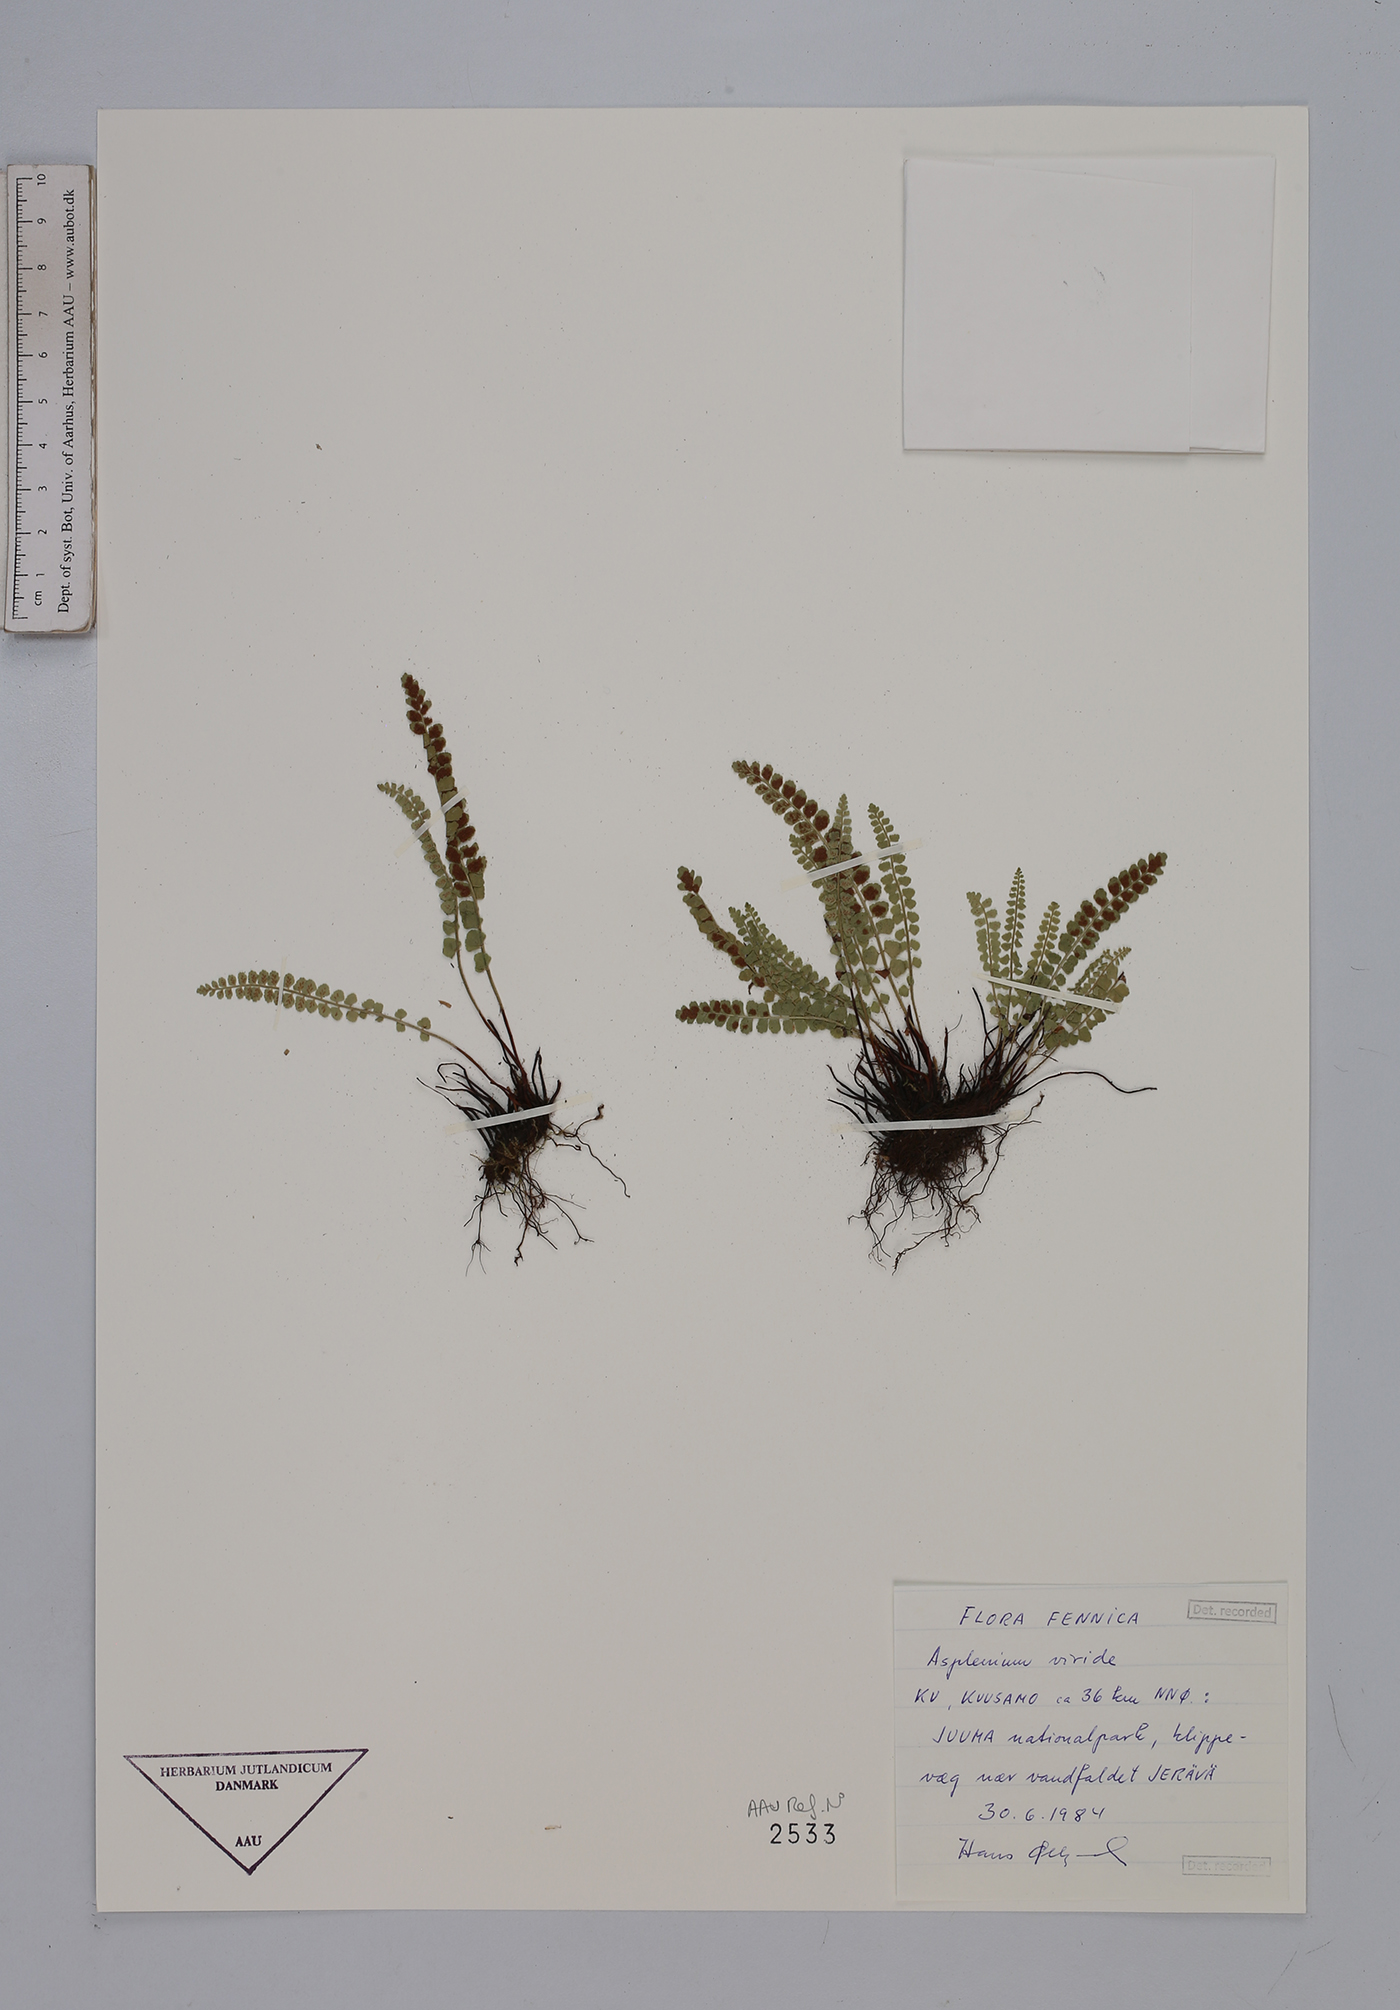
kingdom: Plantae
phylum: Tracheophyta
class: Polypodiopsida
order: Polypodiales
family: Aspleniaceae
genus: Asplenium
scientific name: Asplenium viride
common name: Green spleenwort
